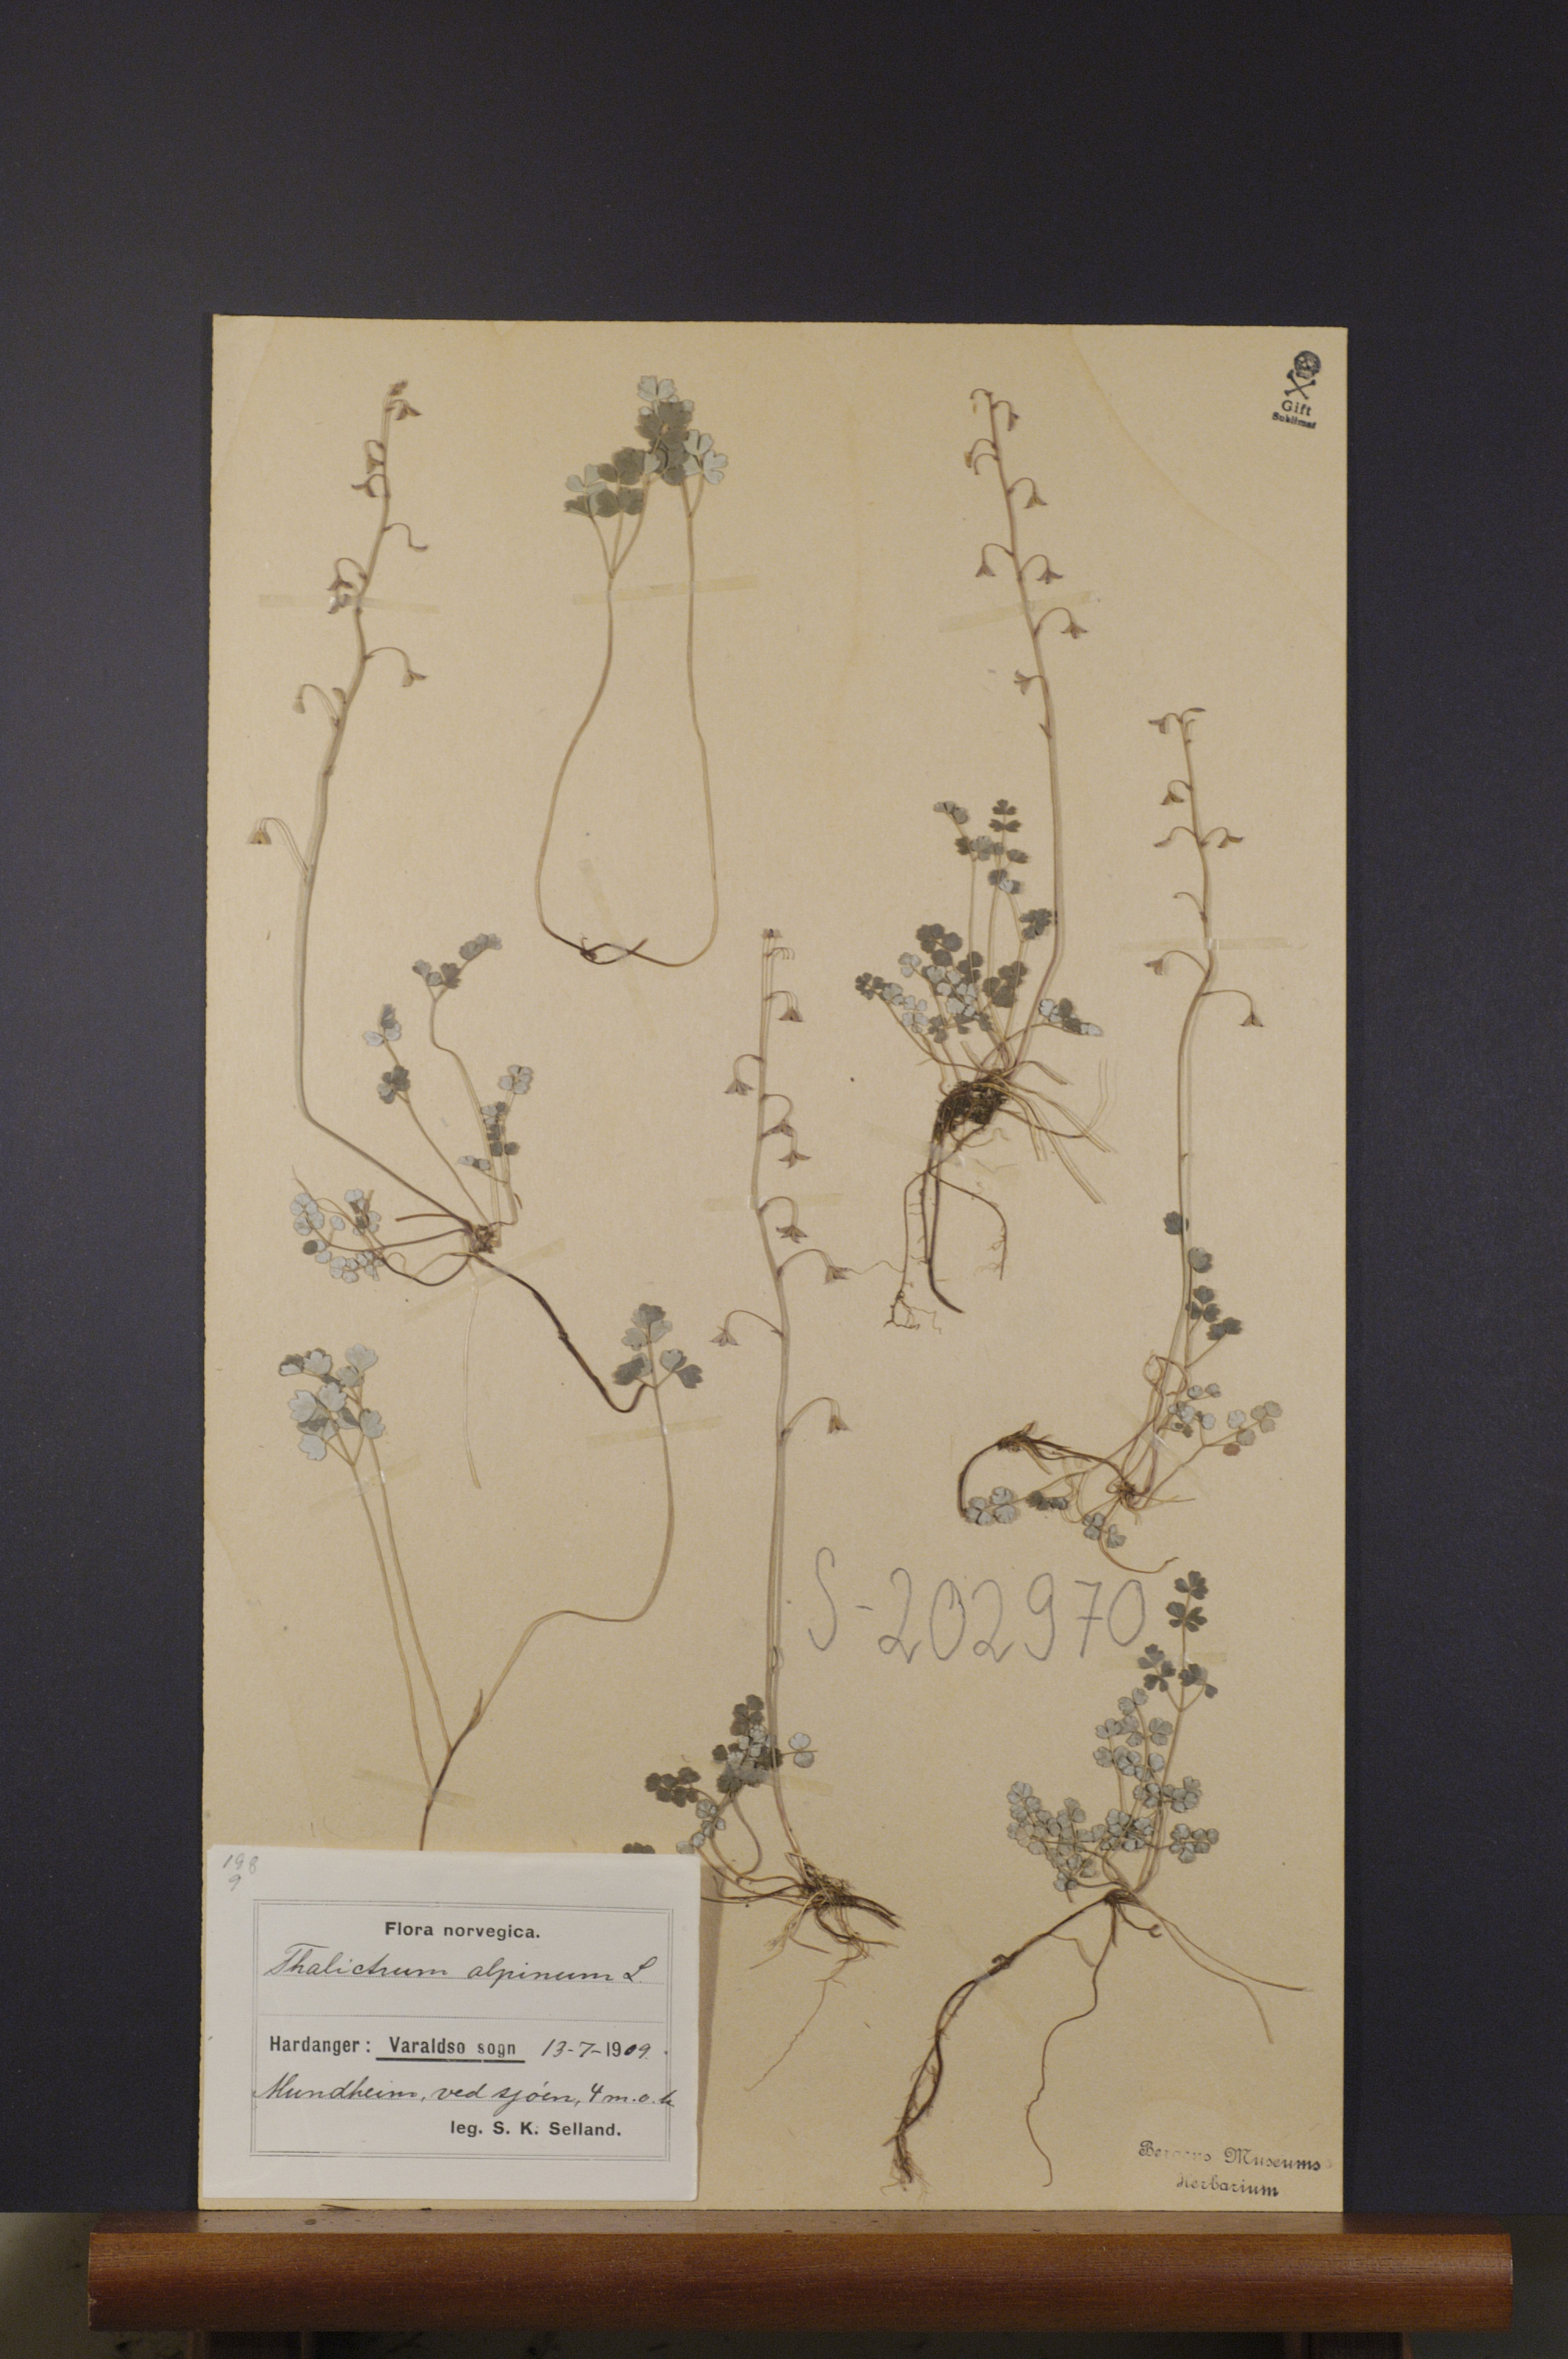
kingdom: Plantae
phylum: Tracheophyta
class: Magnoliopsida
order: Ranunculales
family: Ranunculaceae
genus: Thalictrum
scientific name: Thalictrum alpinum
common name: Alpine meadow-rue
